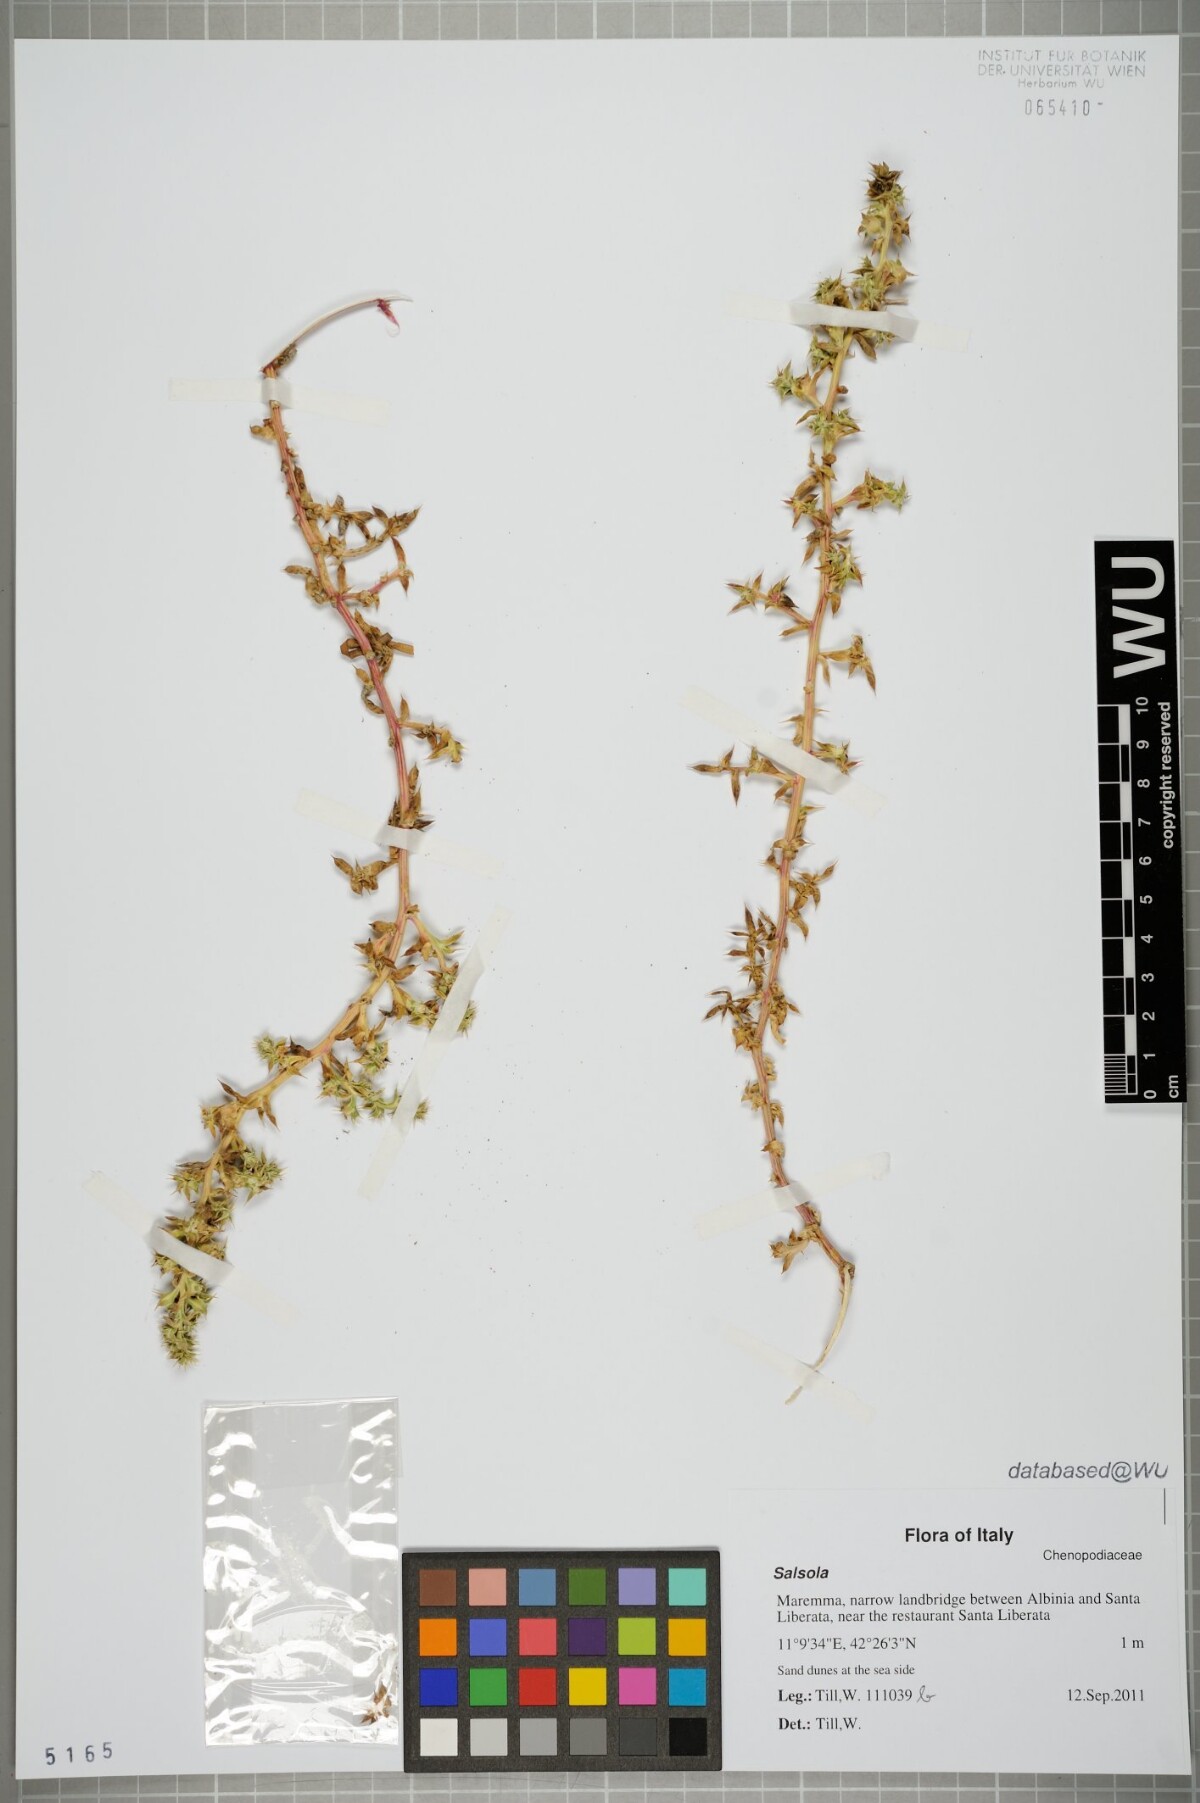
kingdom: Plantae
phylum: Tracheophyta
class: Magnoliopsida
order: Caryophyllales
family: Amaranthaceae
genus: Salsola
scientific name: Salsola
